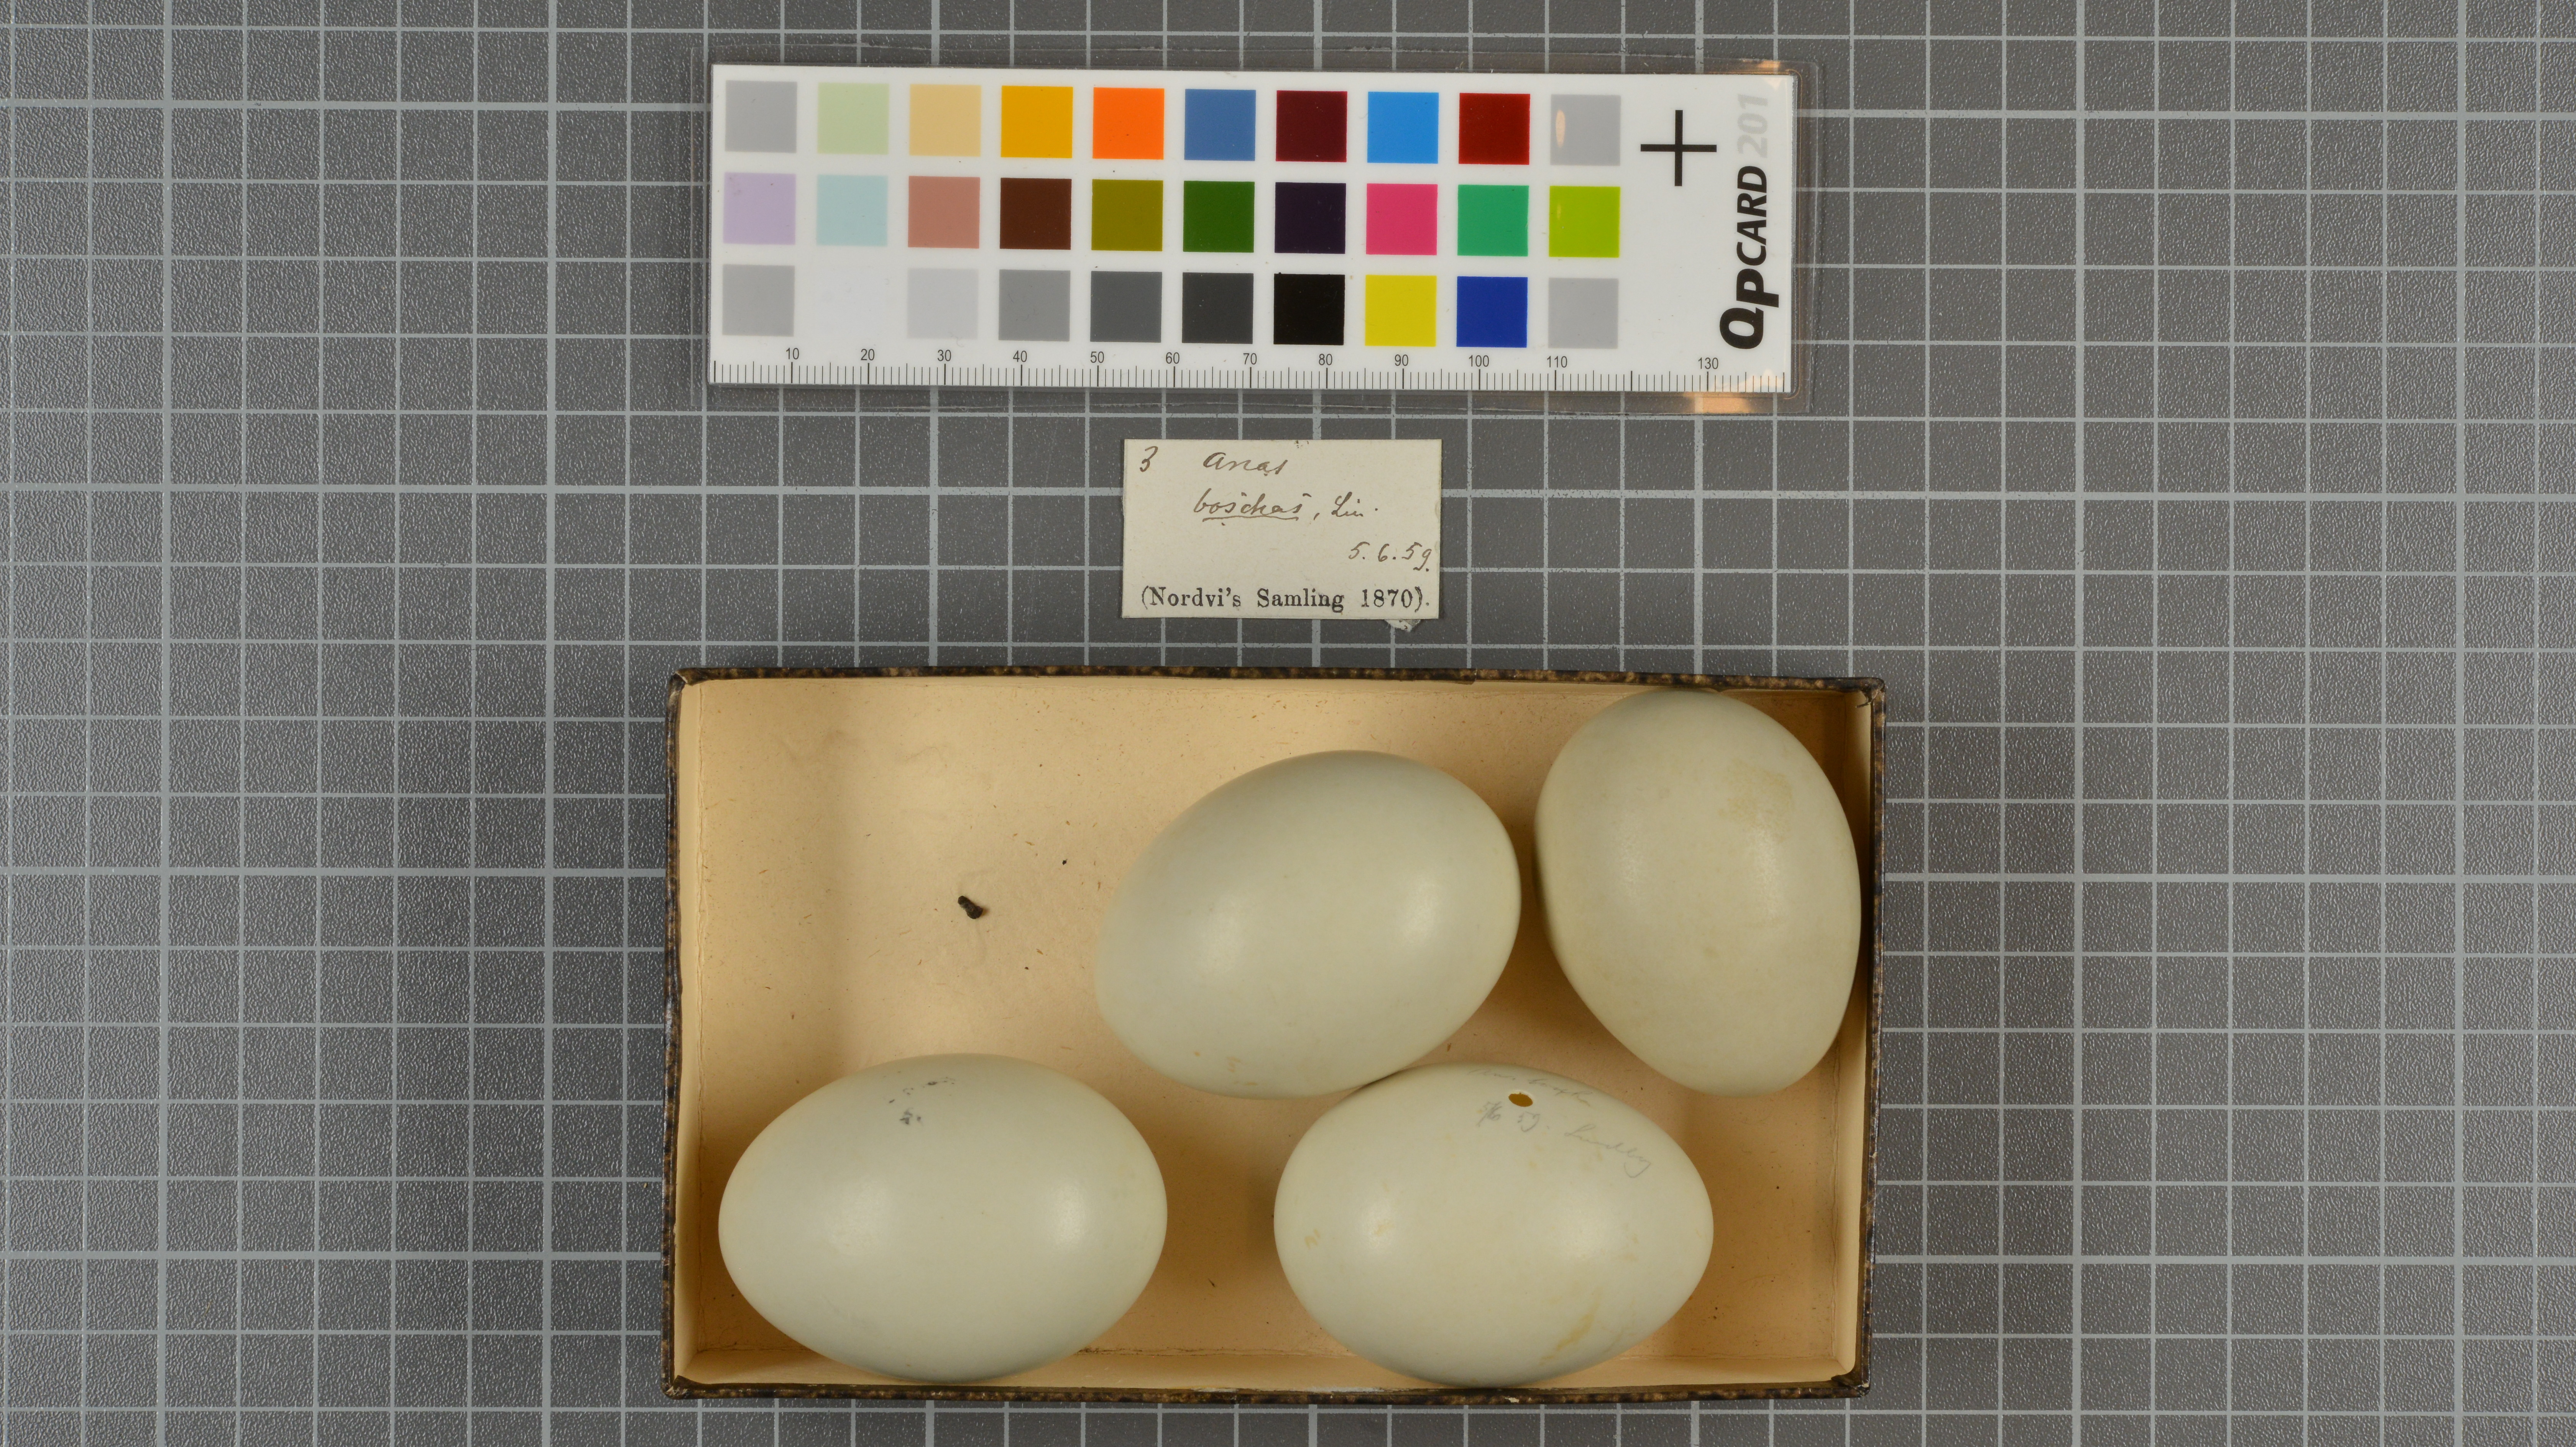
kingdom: Animalia
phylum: Chordata
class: Aves
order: Anseriformes
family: Anatidae
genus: Anas
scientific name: Anas platyrhynchos
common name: Mallard
